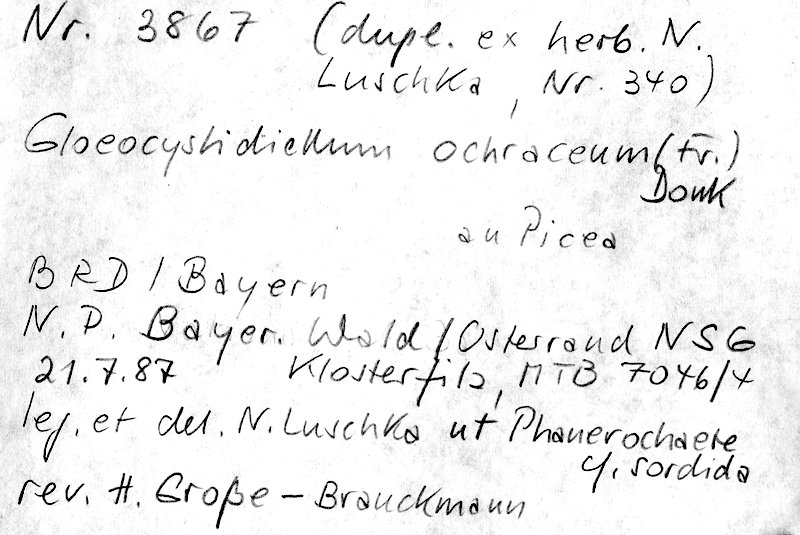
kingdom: Plantae
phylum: Tracheophyta
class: Pinopsida
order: Pinales
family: Pinaceae
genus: Picea
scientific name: Picea abies
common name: Norway spruce
